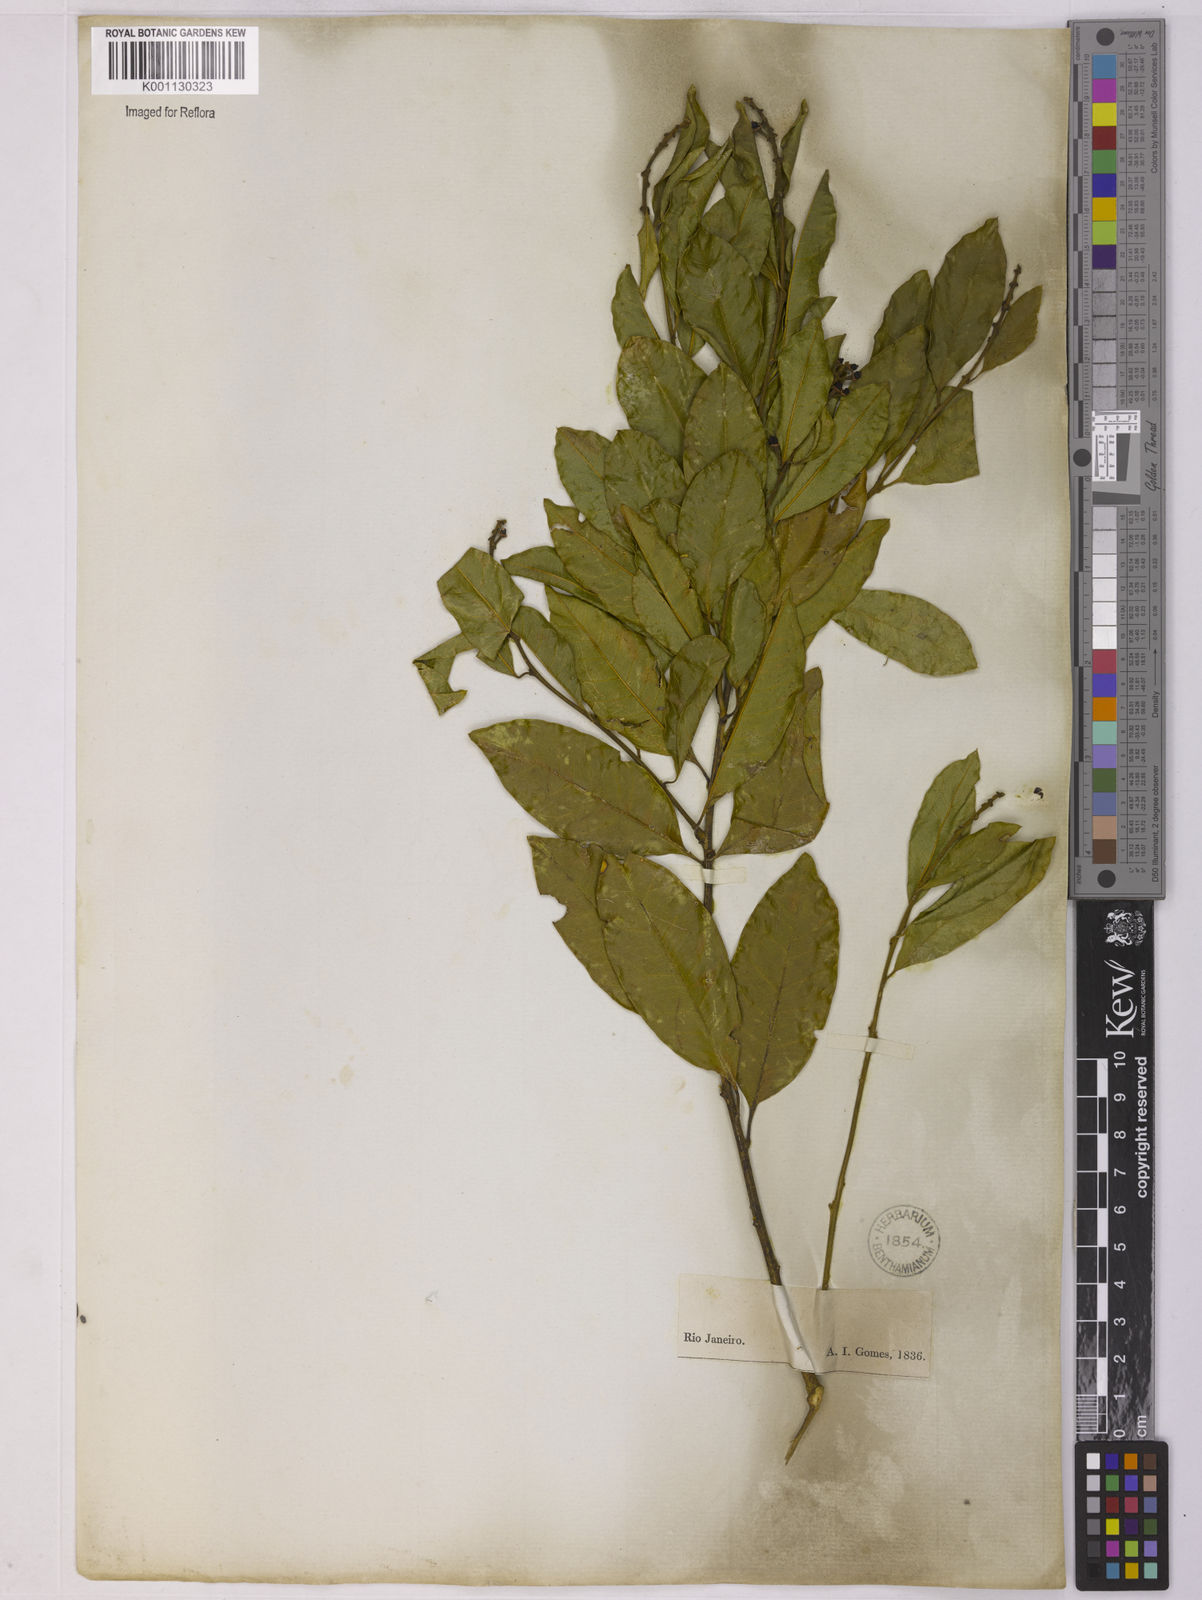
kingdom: Plantae
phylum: Tracheophyta
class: Magnoliopsida
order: Fabales
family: Polygalaceae
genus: Diclidanthera
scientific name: Diclidanthera laurifolia
